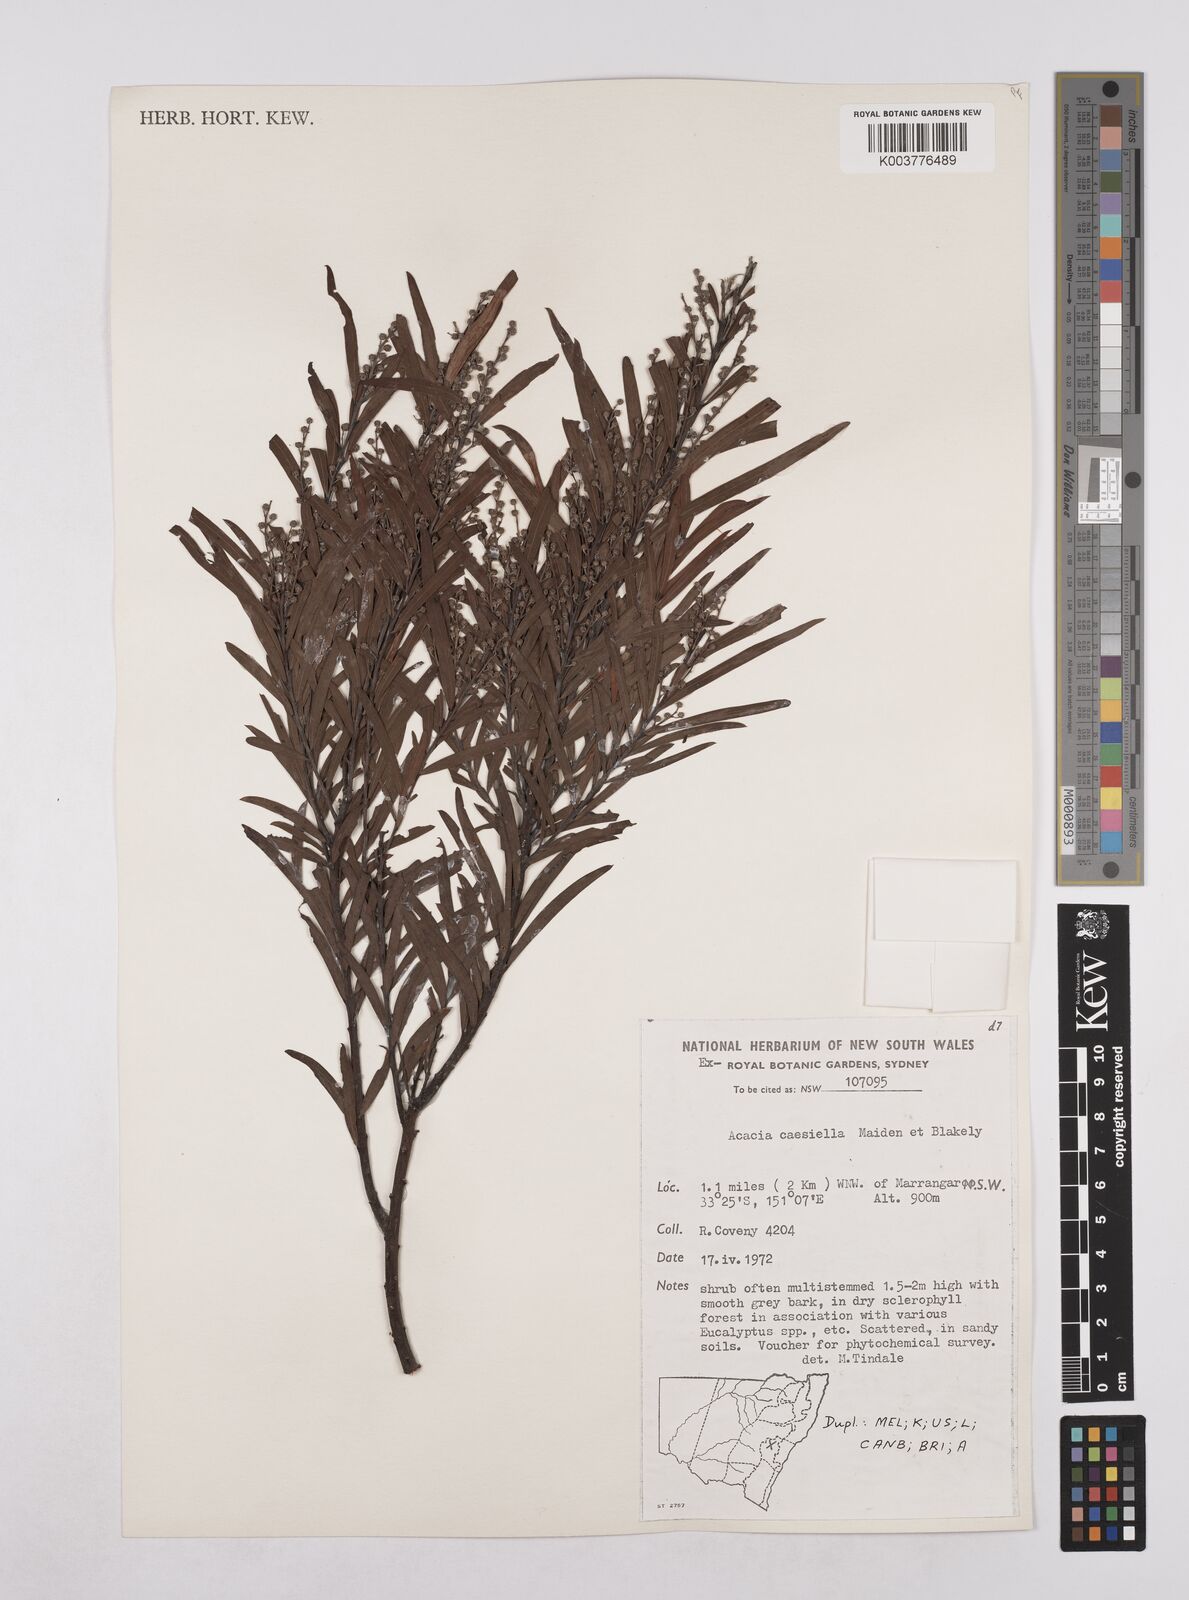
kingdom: Plantae
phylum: Tracheophyta
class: Magnoliopsida
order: Fabales
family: Fabaceae
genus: Acacia
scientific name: Acacia caesiella
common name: Tableland wattle
